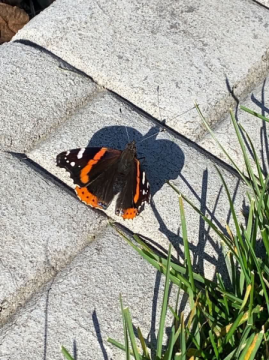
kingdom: Animalia
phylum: Arthropoda
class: Insecta
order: Lepidoptera
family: Nymphalidae
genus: Vanessa
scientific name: Vanessa atalanta
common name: Red Admiral
